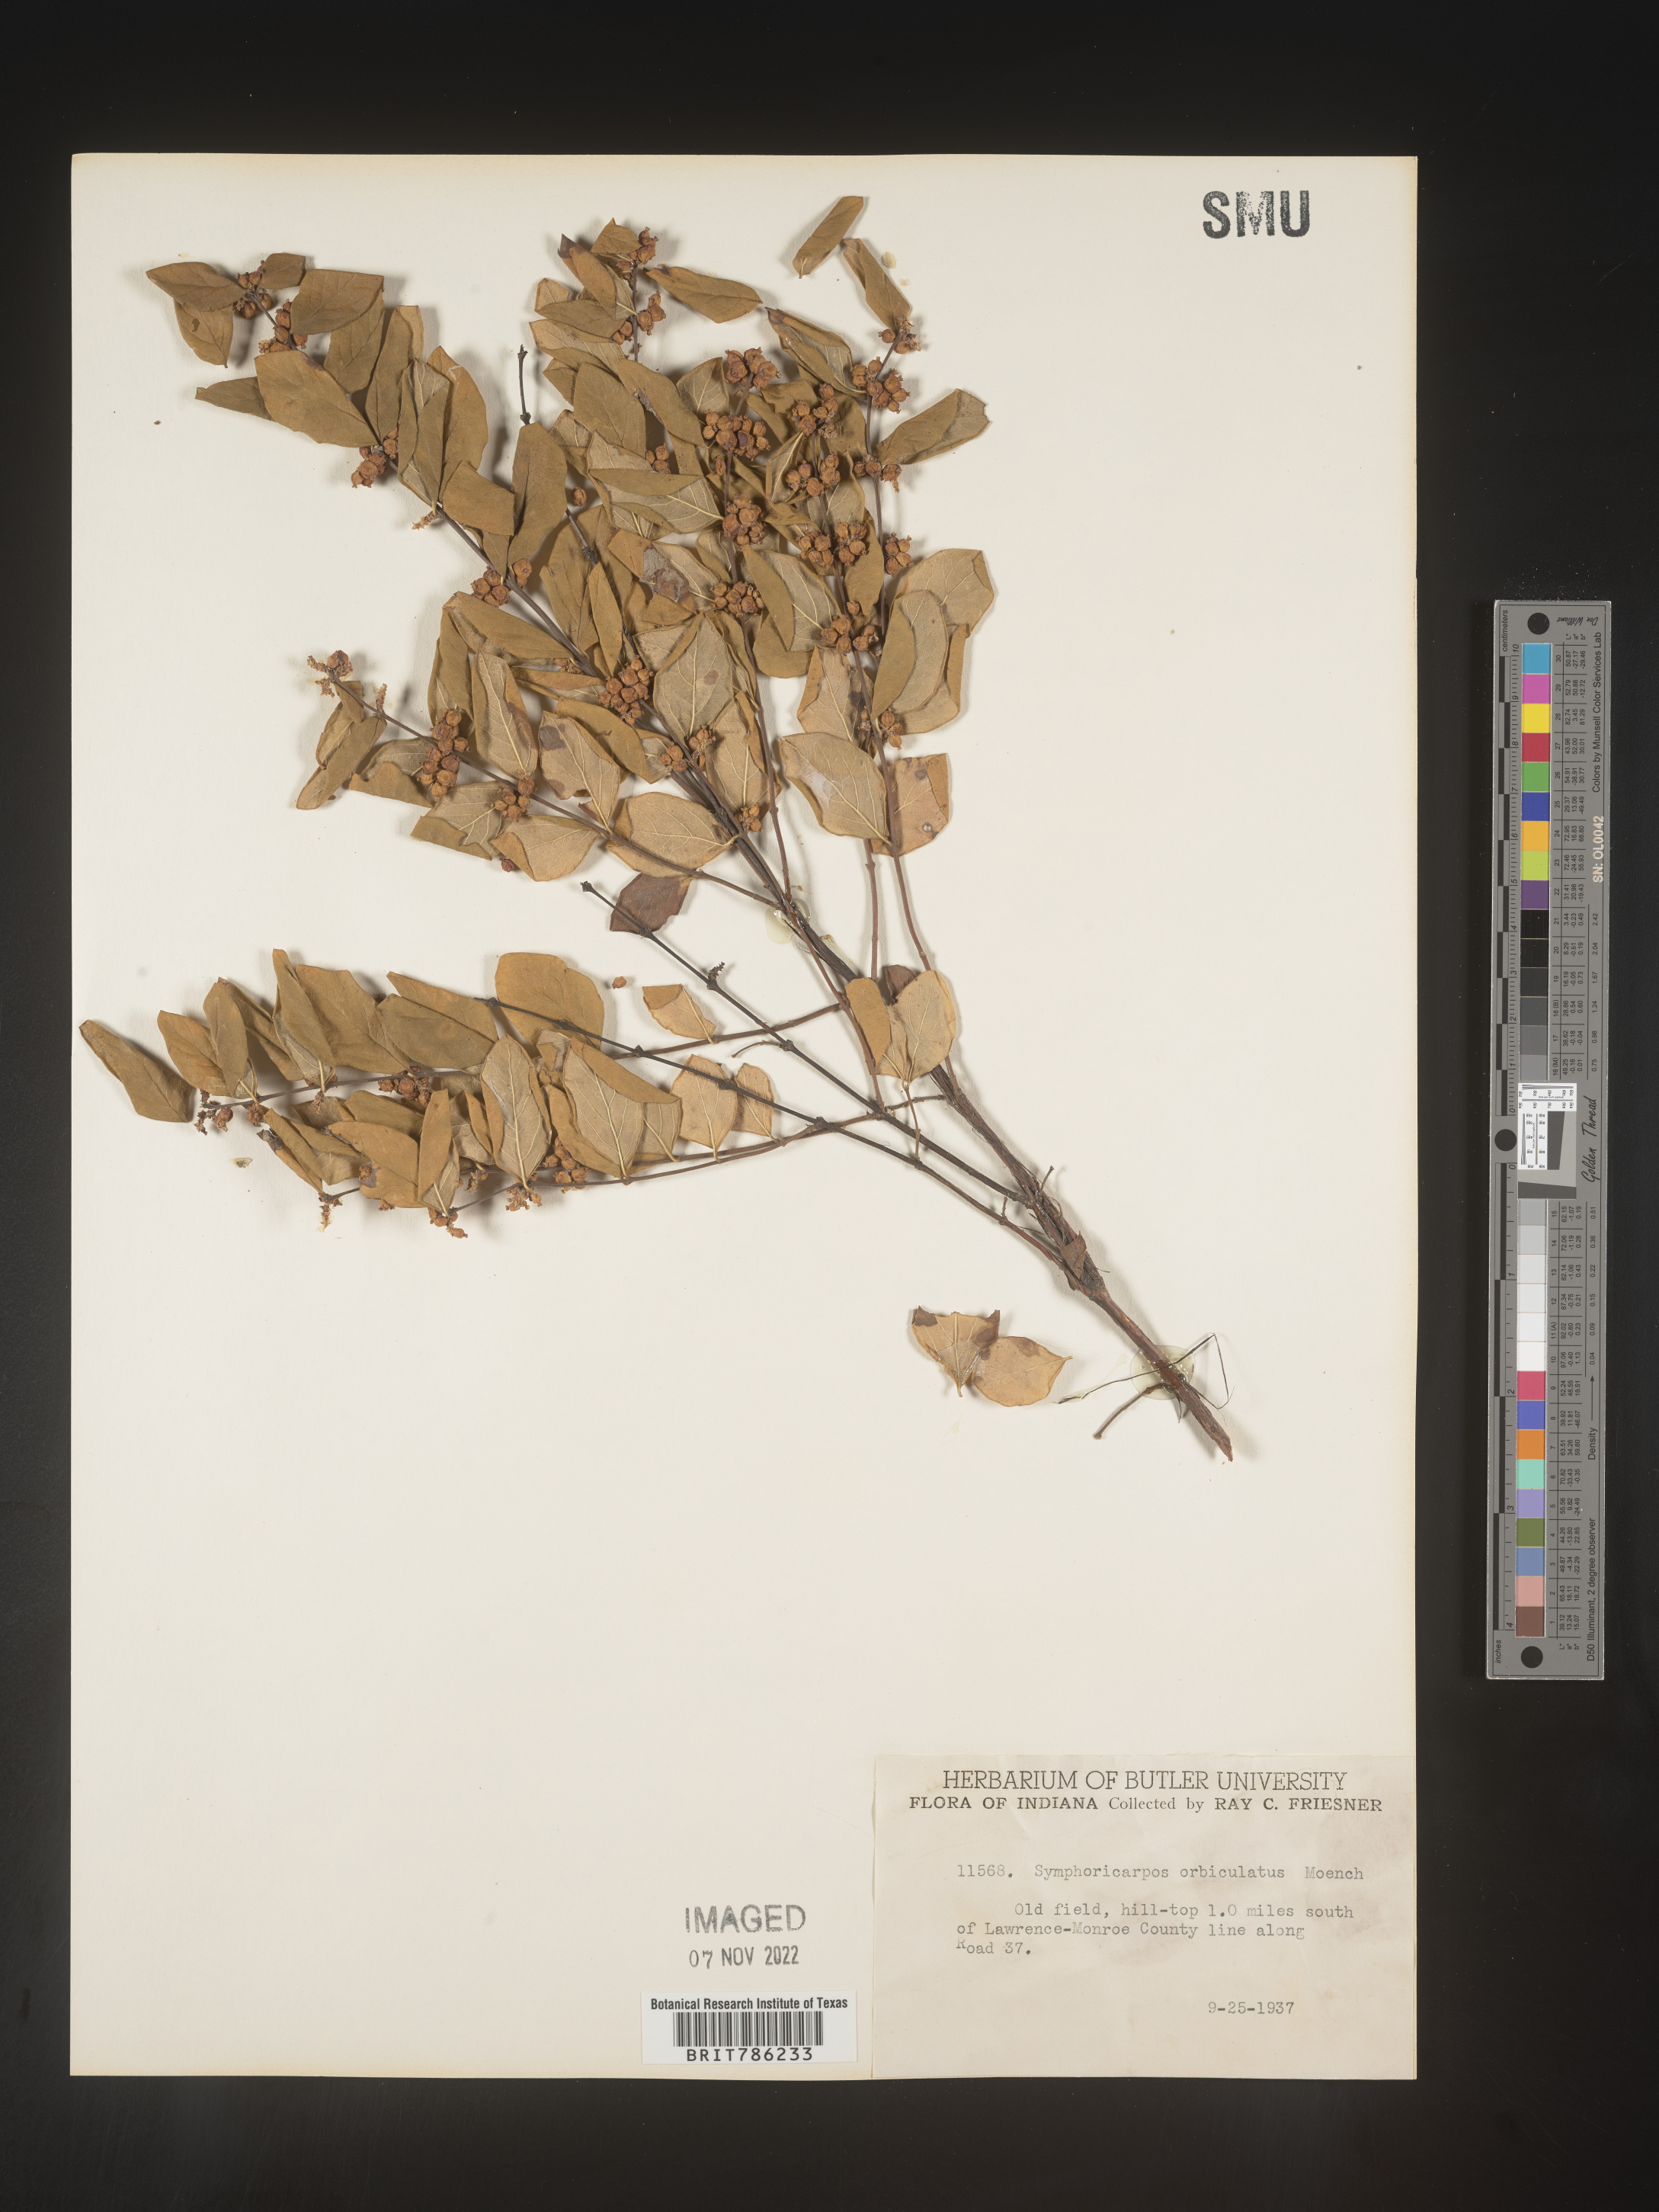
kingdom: Plantae
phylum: Tracheophyta
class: Magnoliopsida
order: Dipsacales
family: Caprifoliaceae
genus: Symphoricarpos
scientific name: Symphoricarpos orbiculatus
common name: Coralberry
